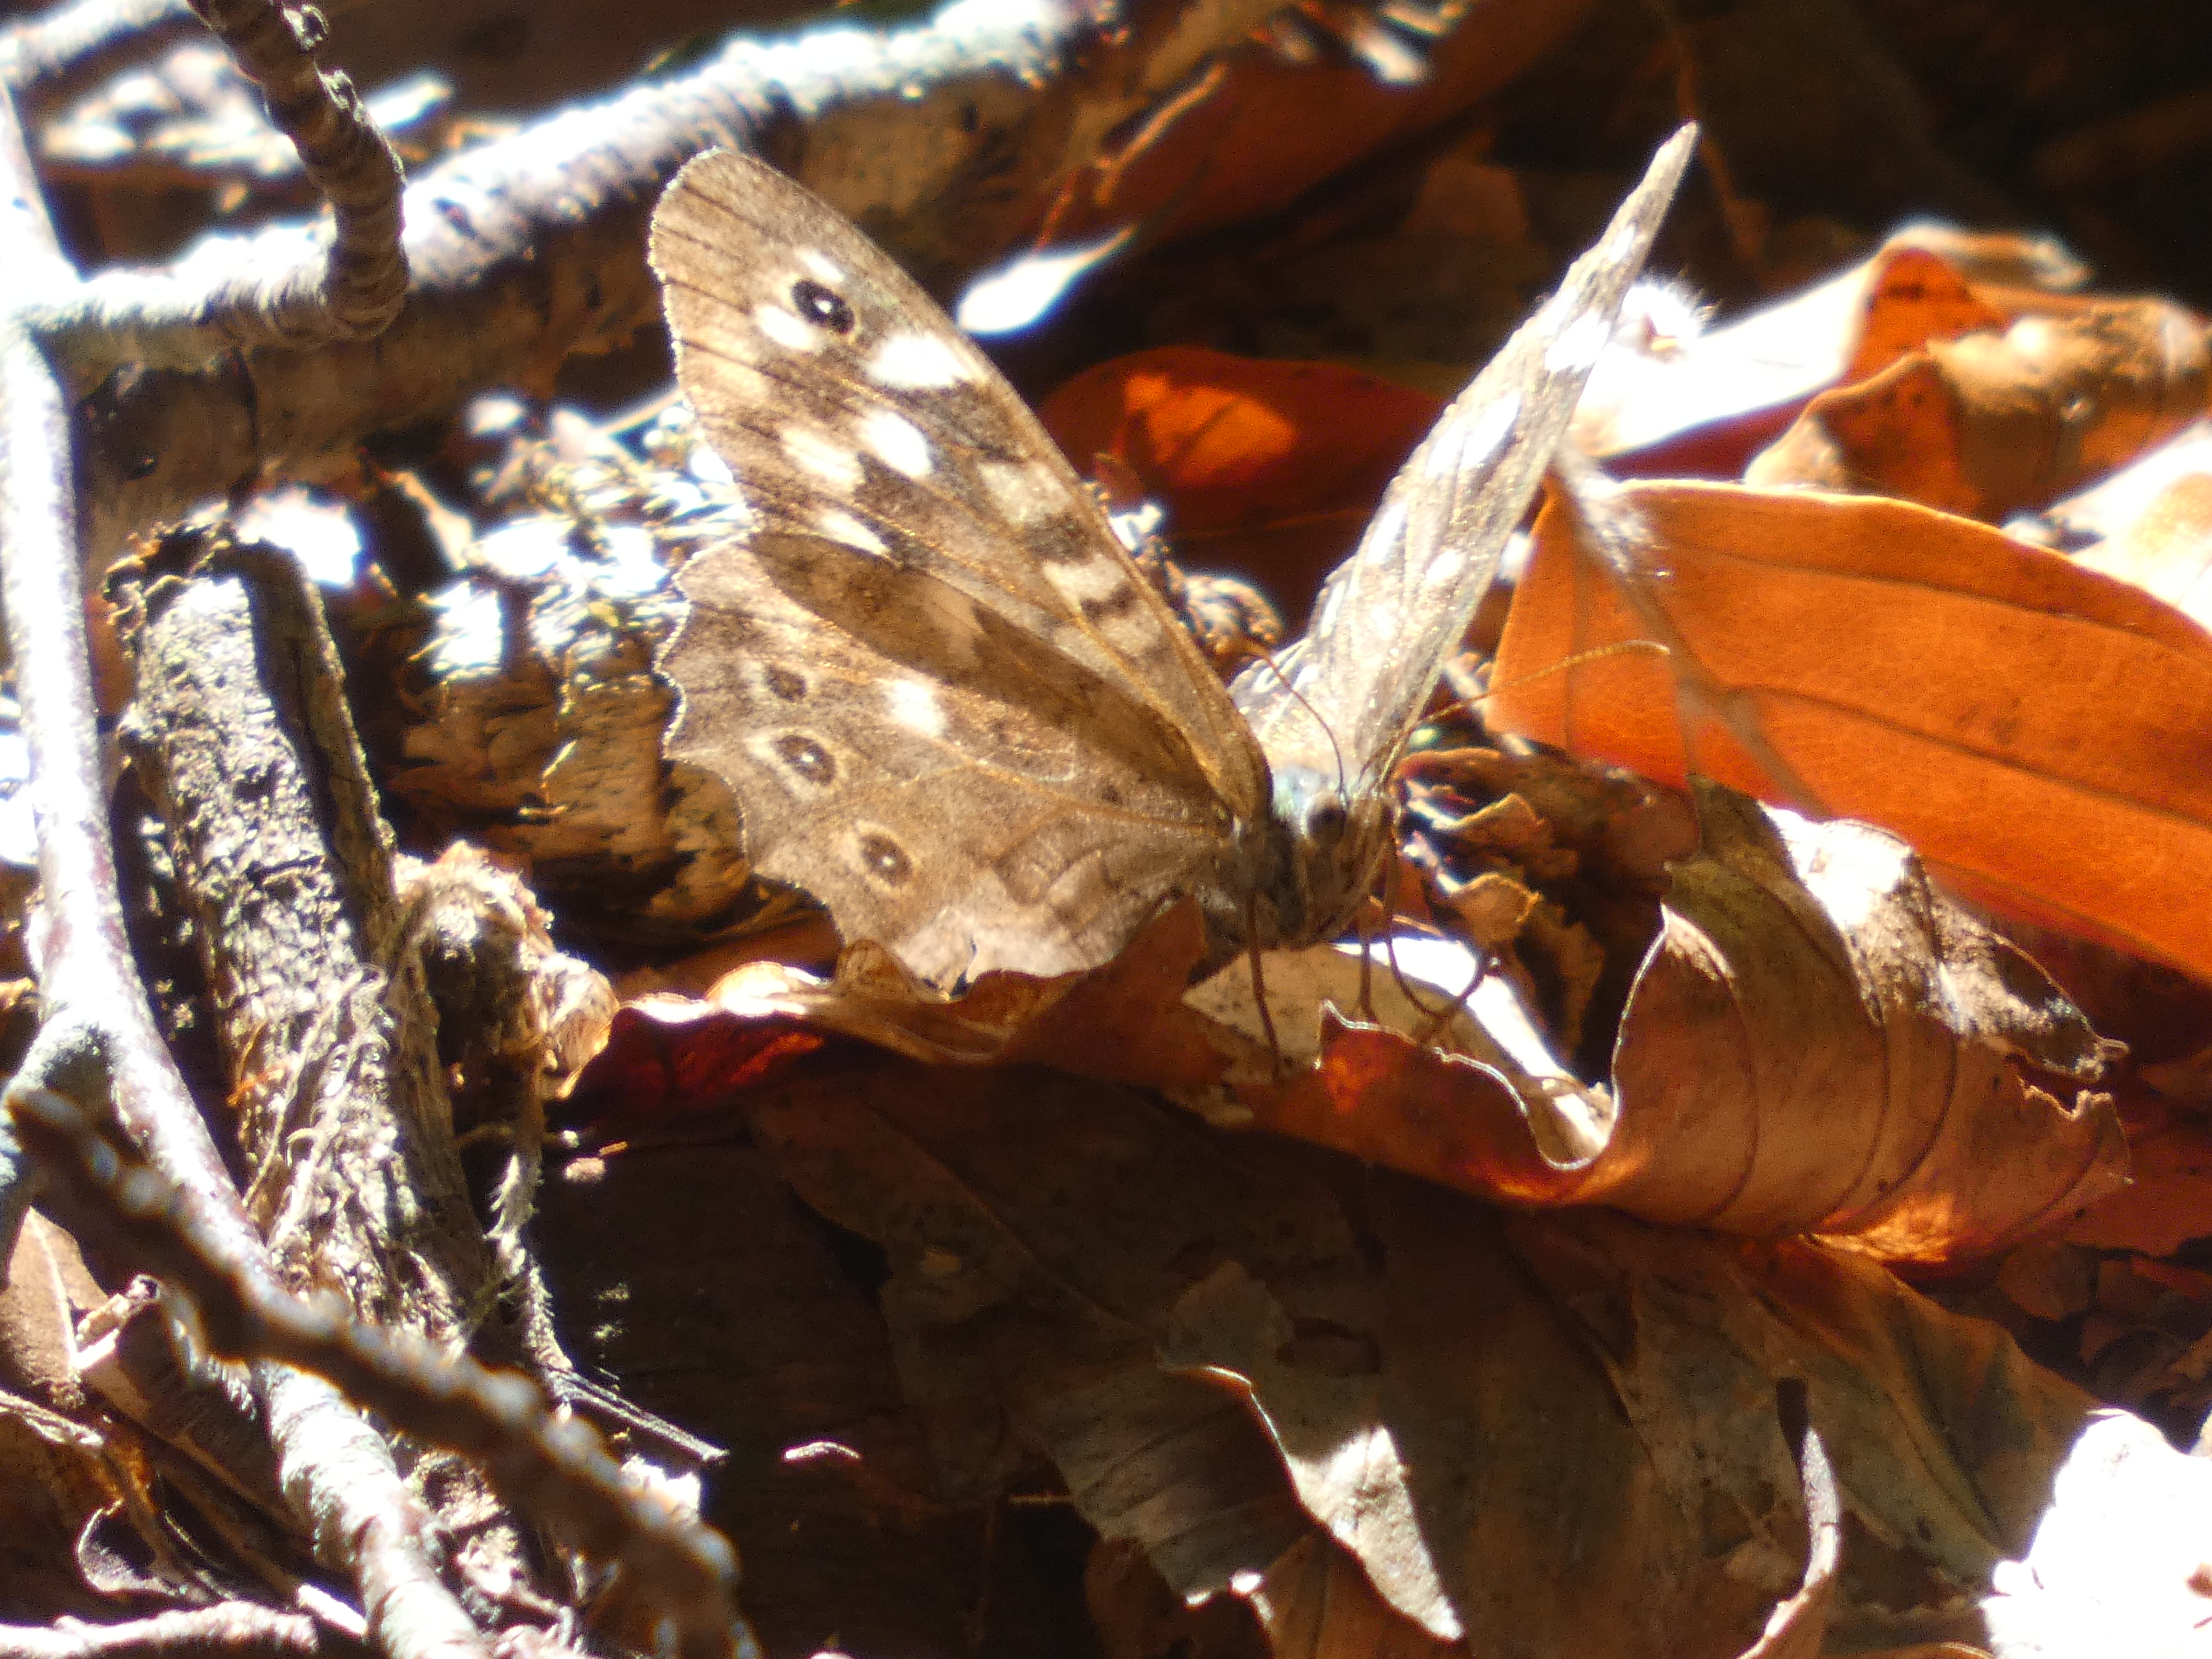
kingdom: Animalia
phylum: Arthropoda
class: Insecta
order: Lepidoptera
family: Nymphalidae
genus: Pararge
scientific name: Pararge aegeria
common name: Skovrandøje
